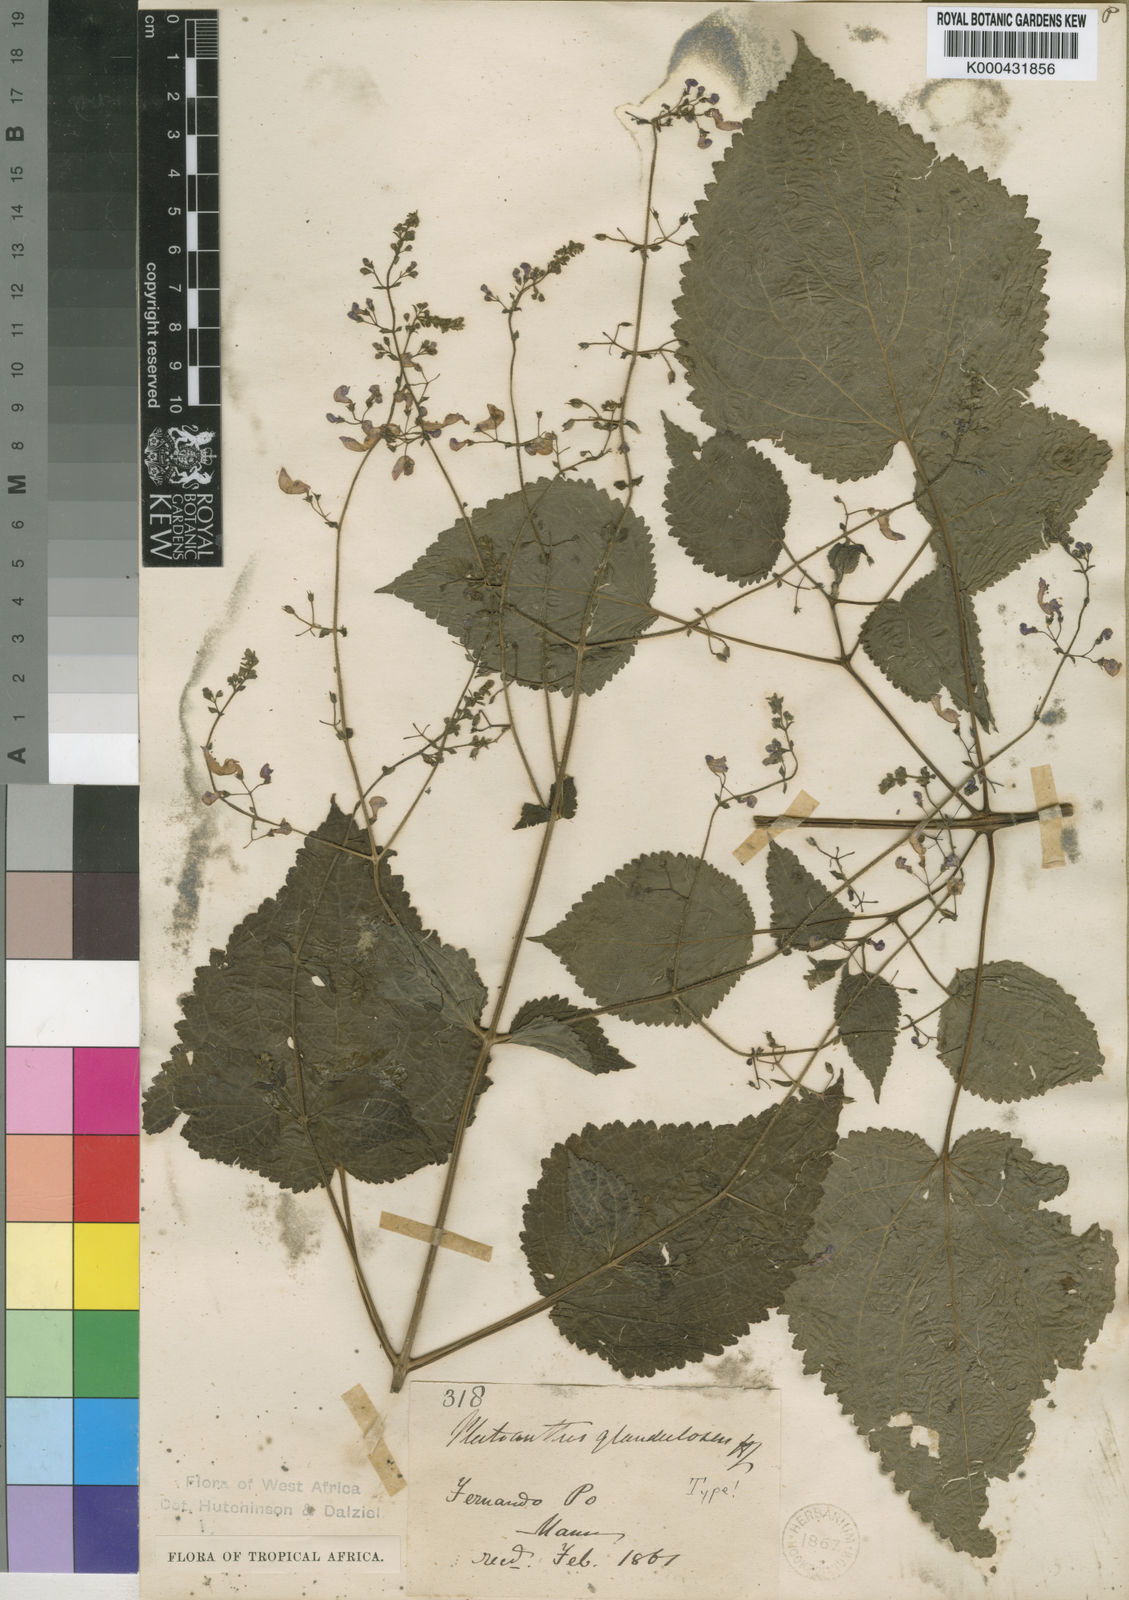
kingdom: Plantae
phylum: Tracheophyta
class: Magnoliopsida
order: Lamiales
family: Lamiaceae
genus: Equilabium
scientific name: Equilabium glandulosum
